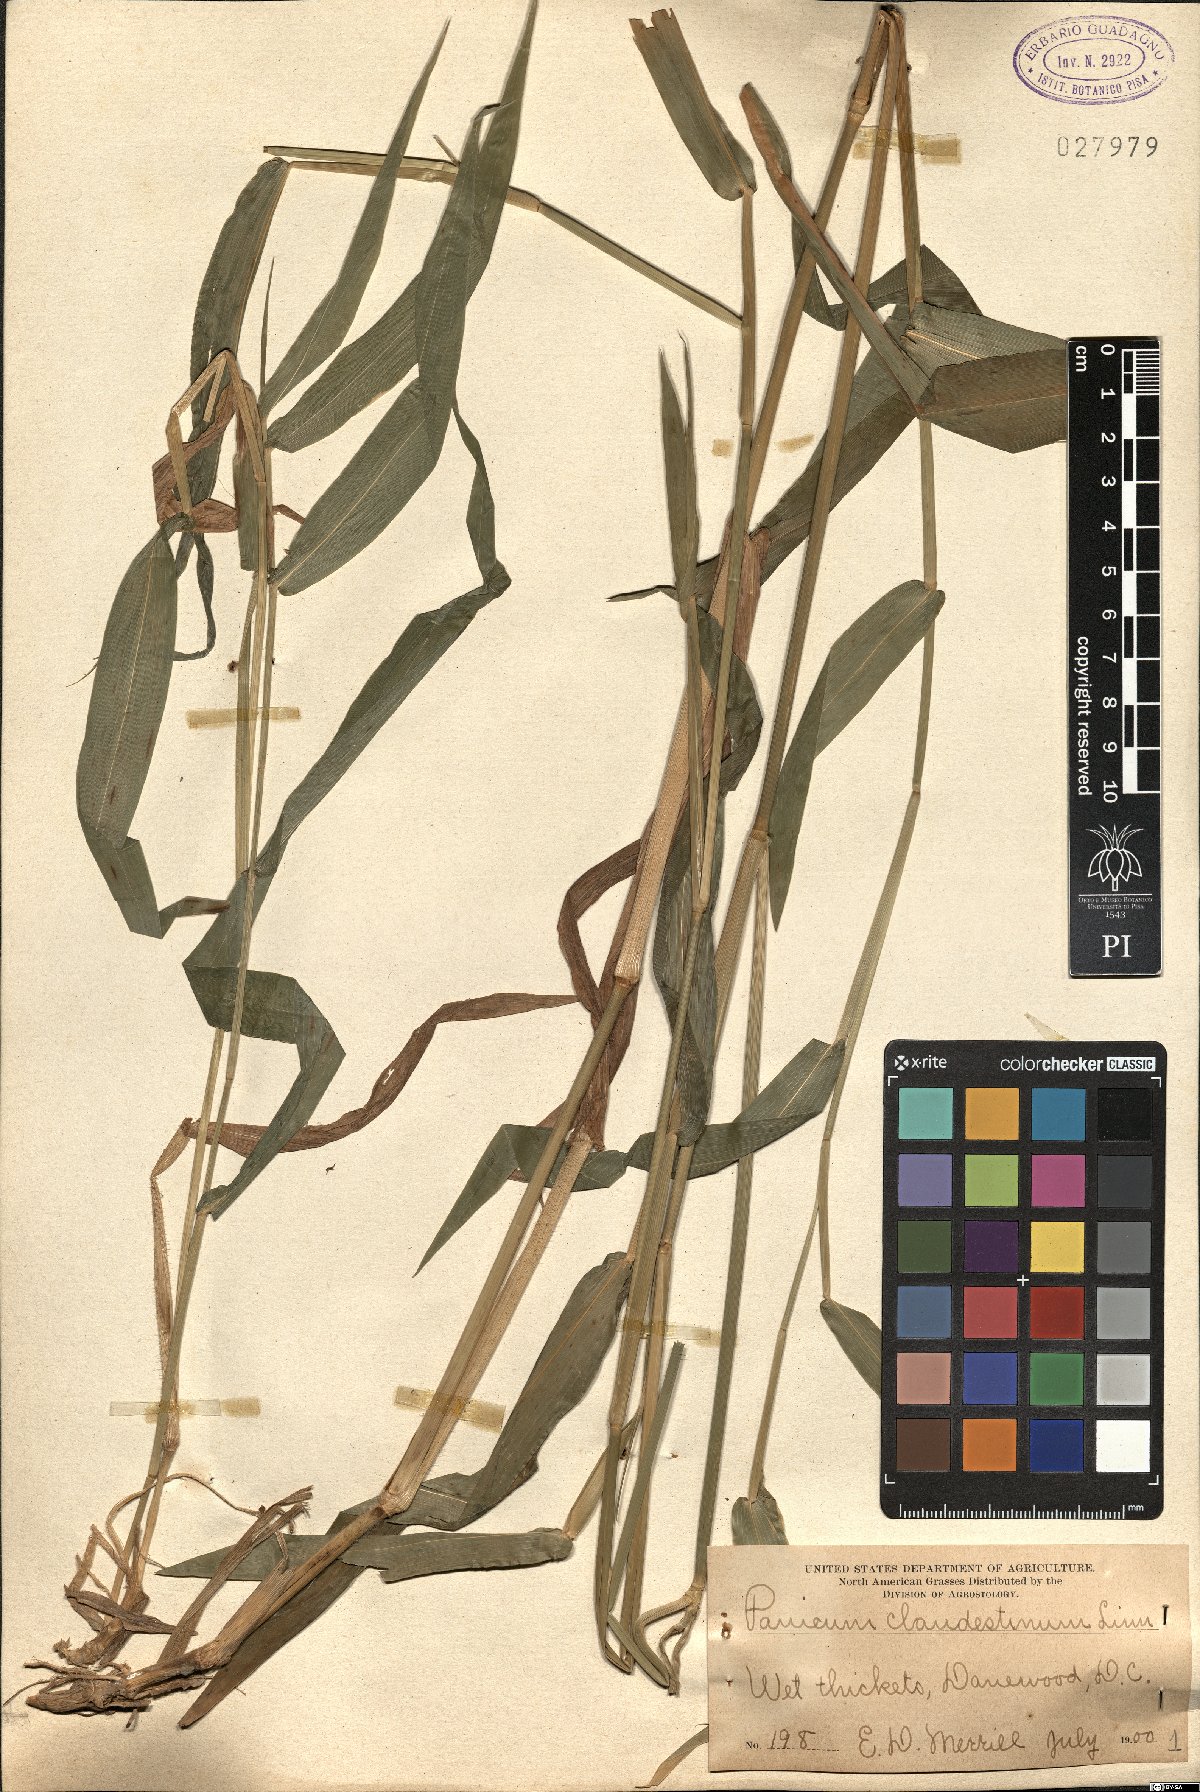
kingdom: Plantae
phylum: Tracheophyta
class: Liliopsida
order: Poales
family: Poaceae
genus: Dichanthelium
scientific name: Dichanthelium clandestinum
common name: Deer-tongue grass
